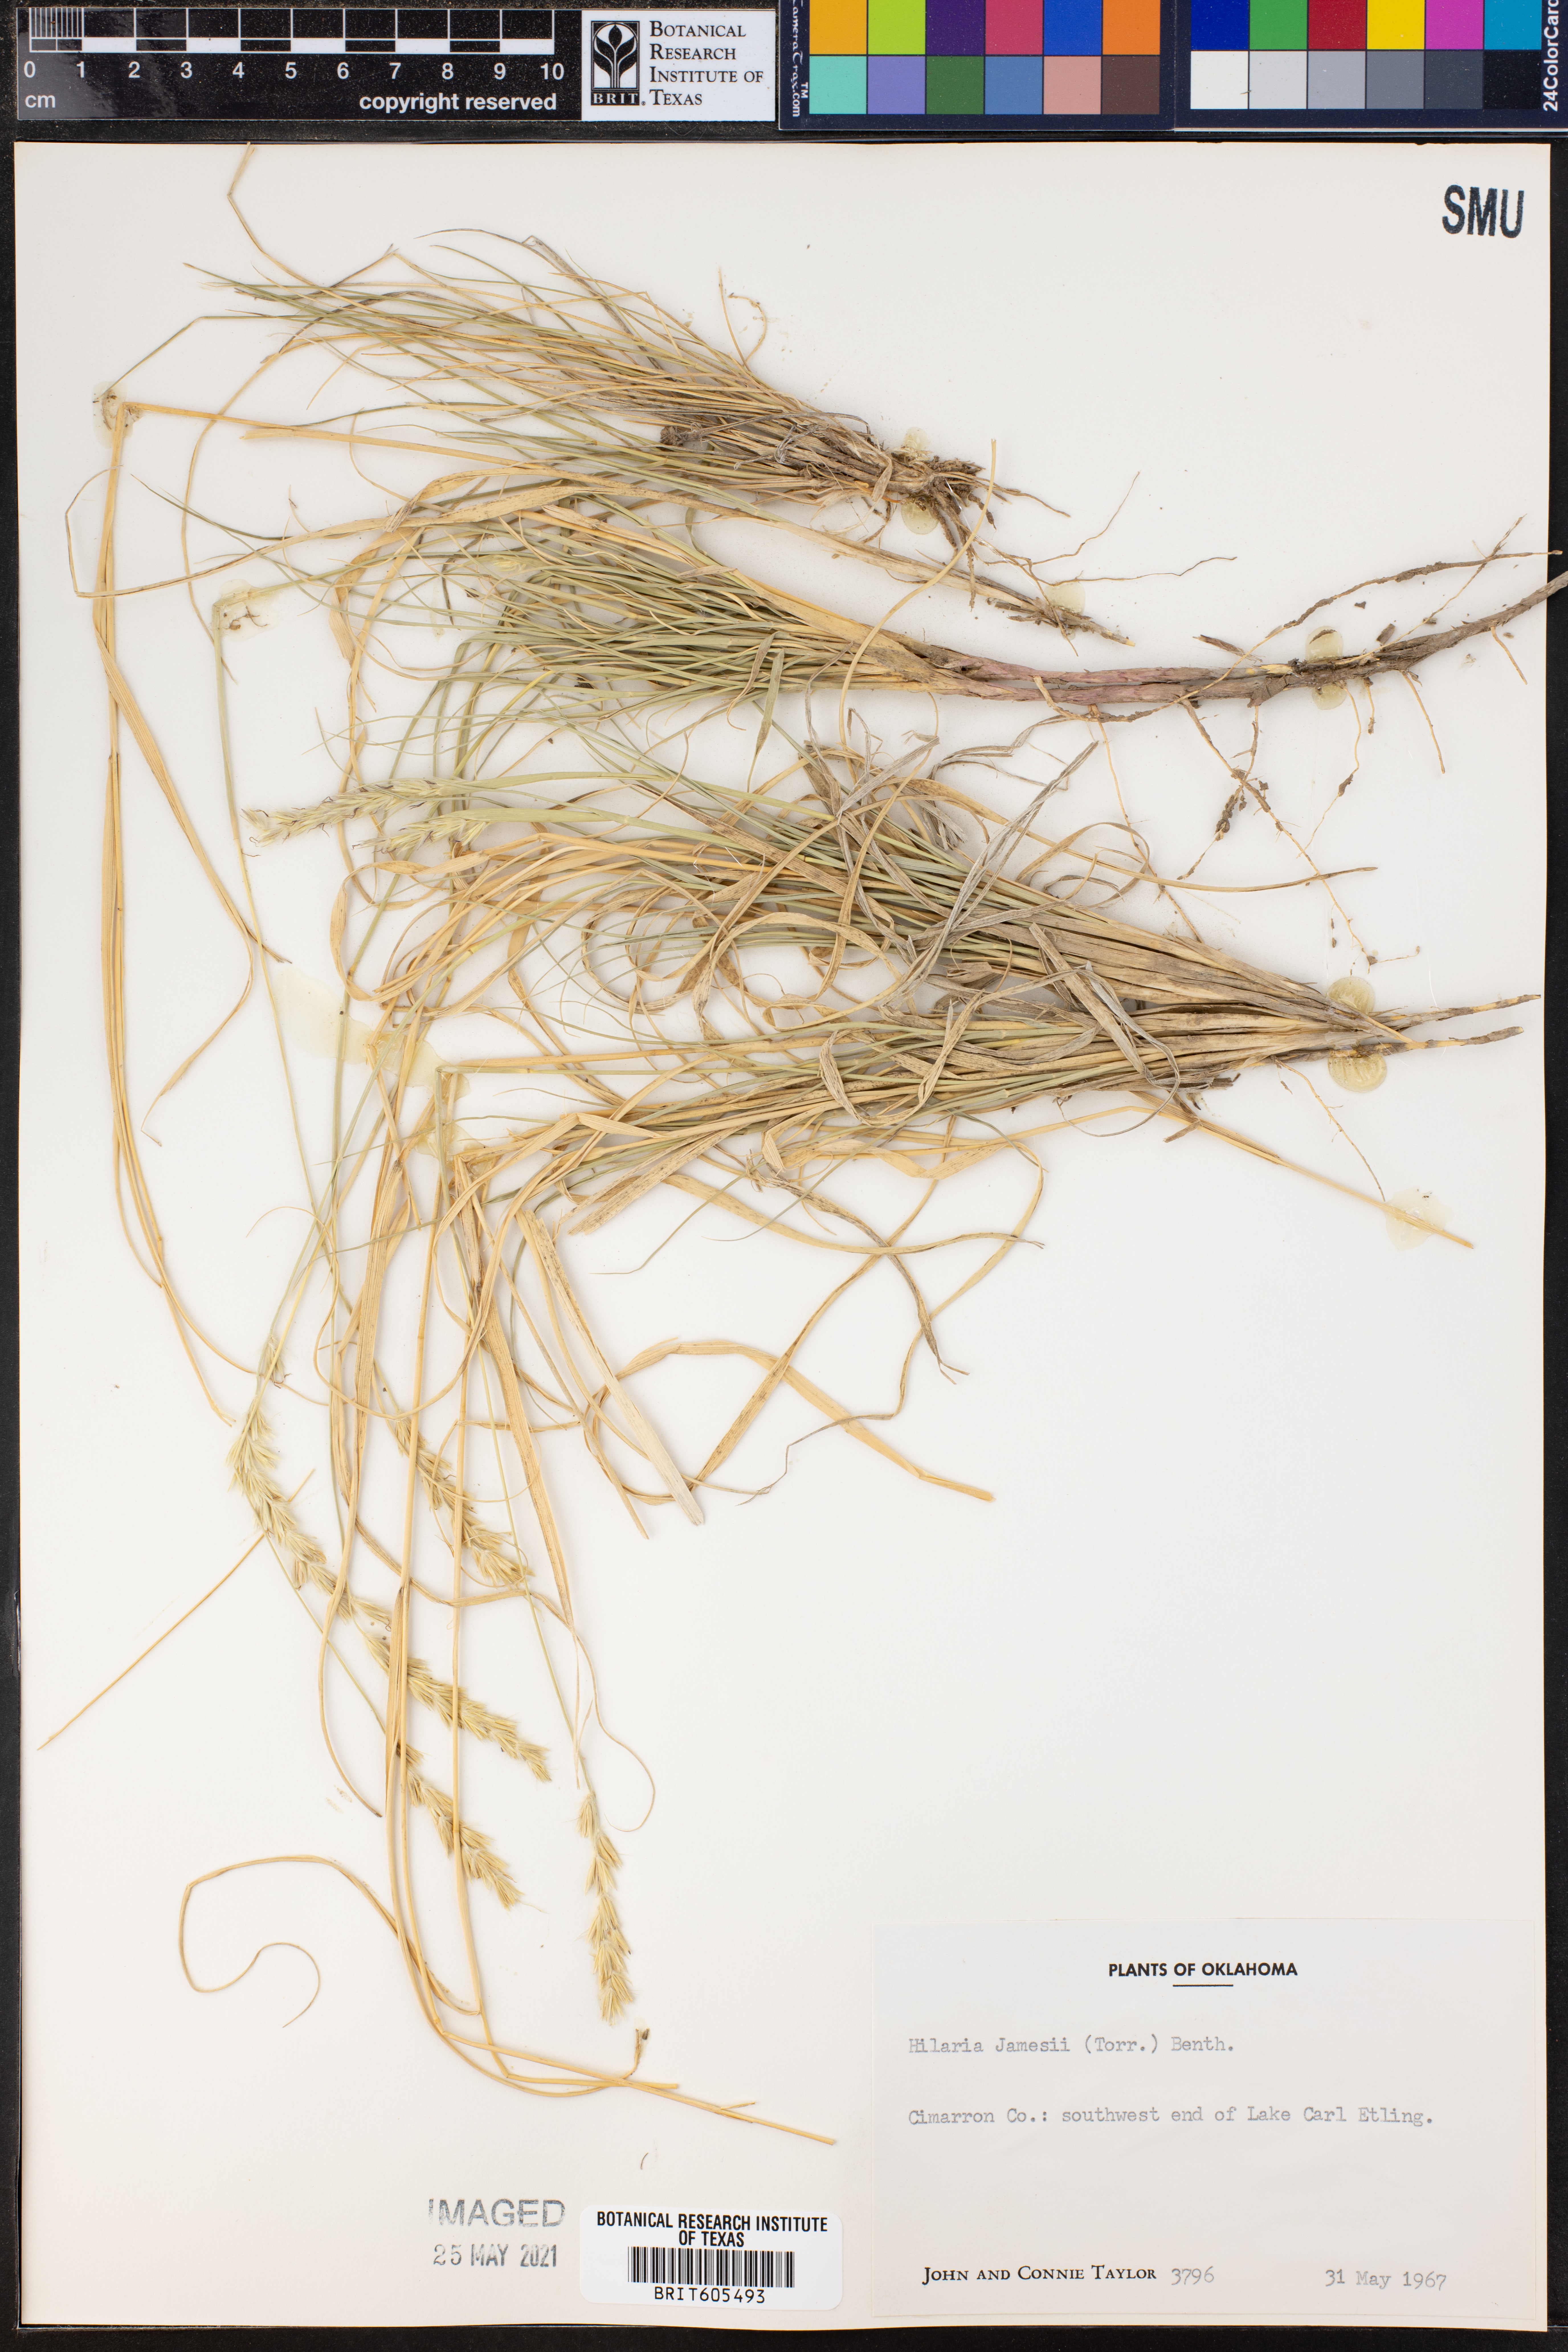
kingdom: Plantae
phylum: Tracheophyta
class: Liliopsida
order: Poales
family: Poaceae
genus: Hilaria
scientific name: Hilaria jamesii
